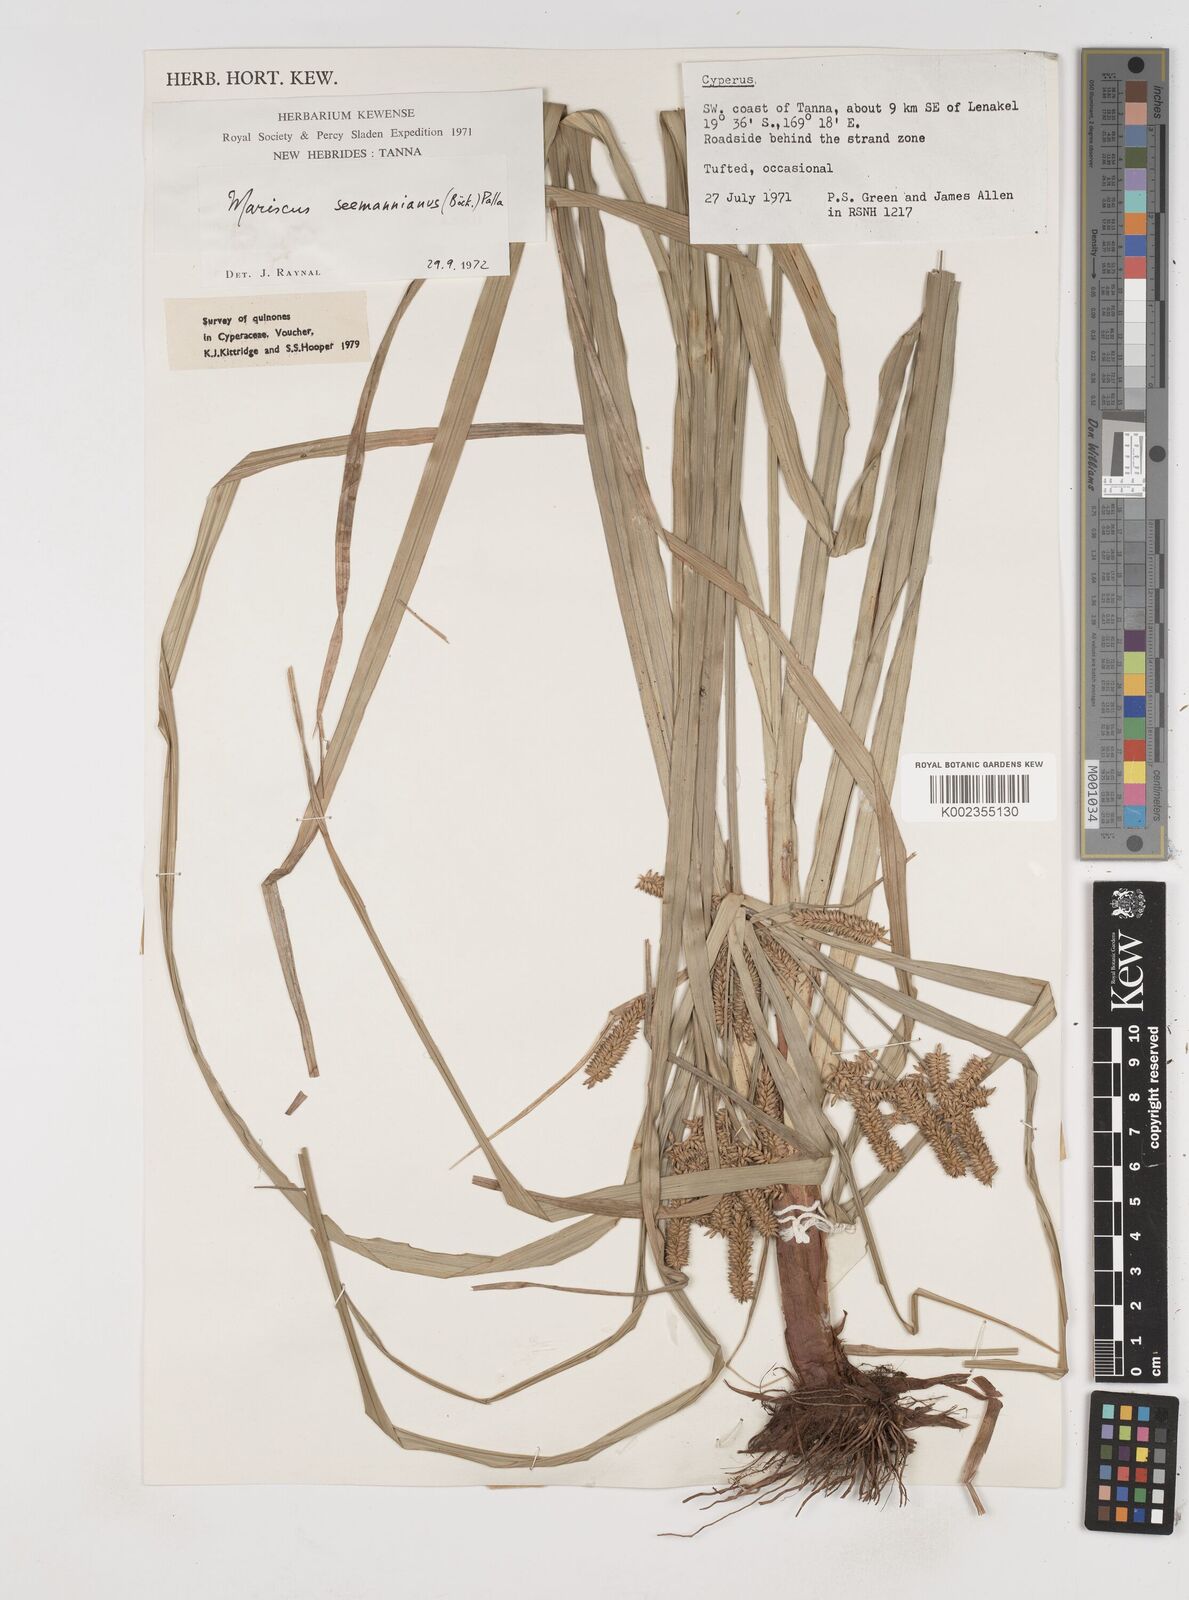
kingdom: Plantae
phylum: Tracheophyta
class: Liliopsida
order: Poales
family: Cyperaceae
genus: Cyperus
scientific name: Cyperus seemannianus
